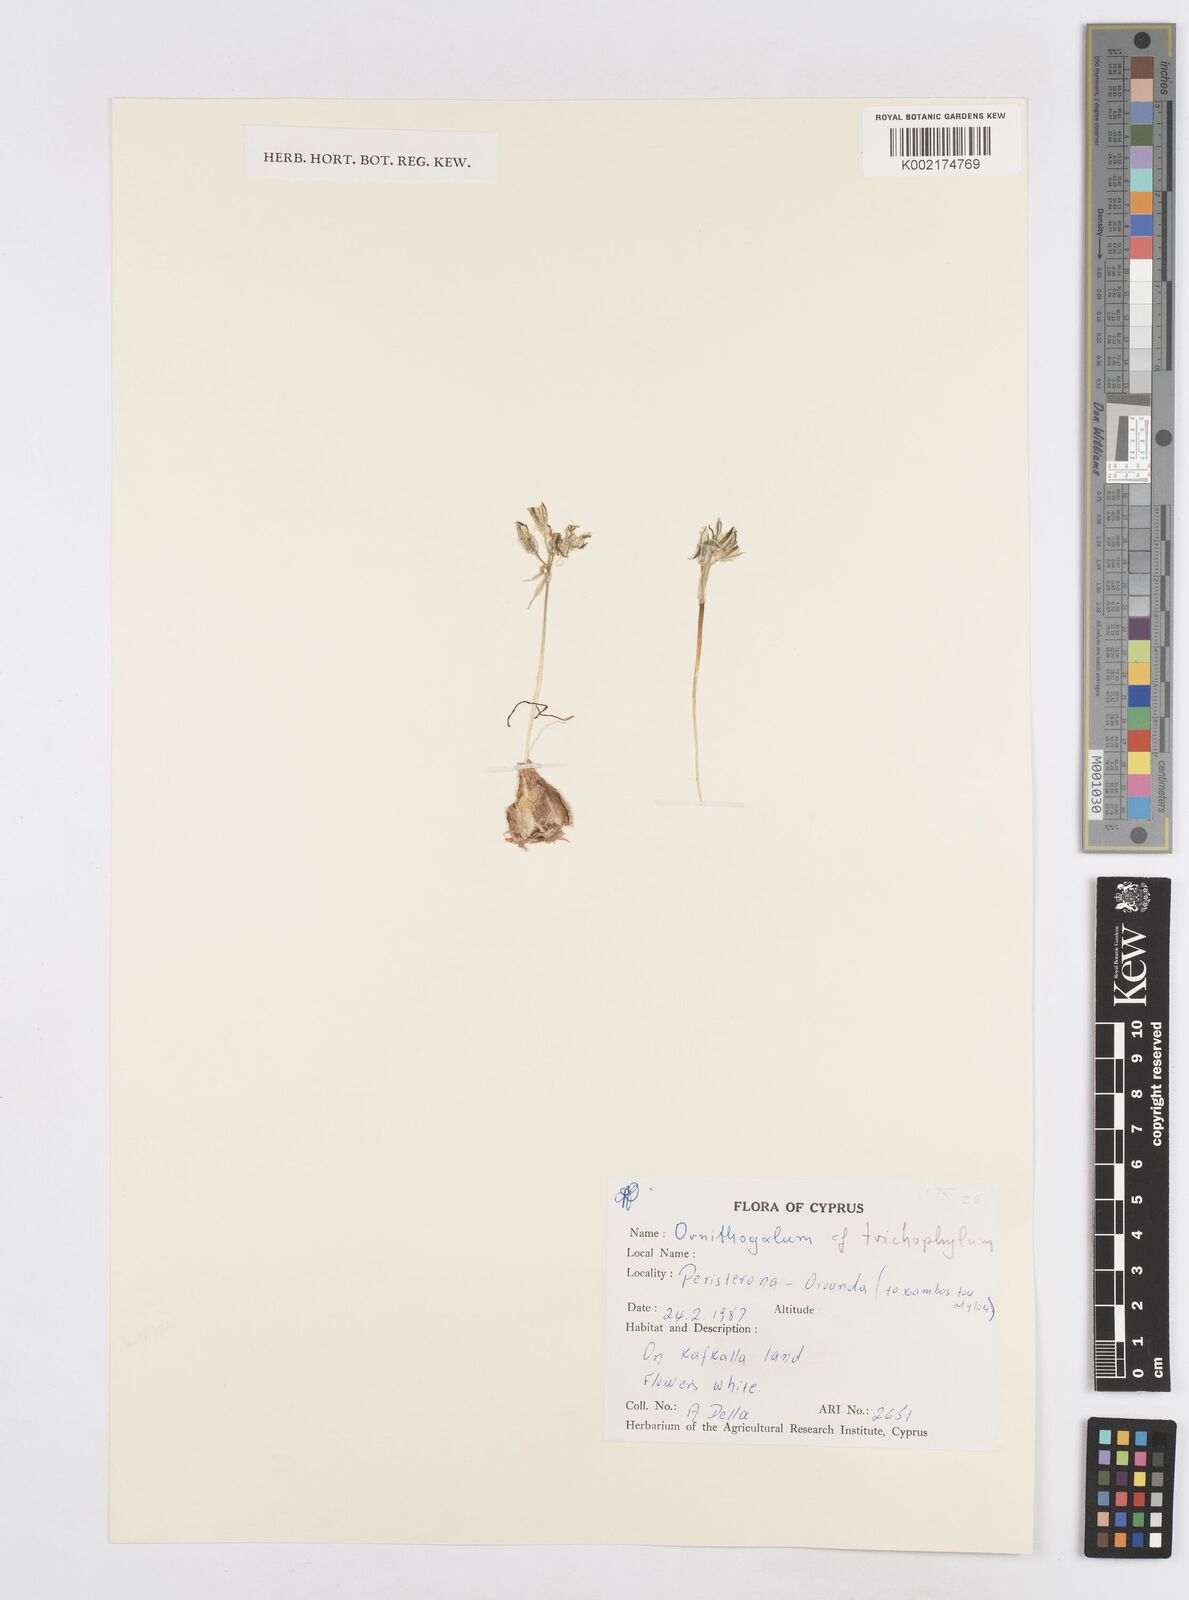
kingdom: Plantae
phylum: Tracheophyta
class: Liliopsida
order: Asparagales
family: Asparagaceae
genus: Ornithogalum
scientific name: Ornithogalum trichophyllum
